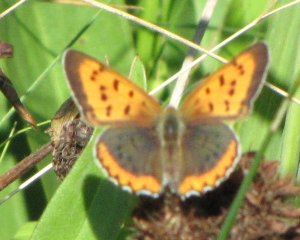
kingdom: Animalia
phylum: Arthropoda
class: Insecta
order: Lepidoptera
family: Sesiidae
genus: Sesia
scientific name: Sesia Lycaena hyllus
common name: Bronze Copper
